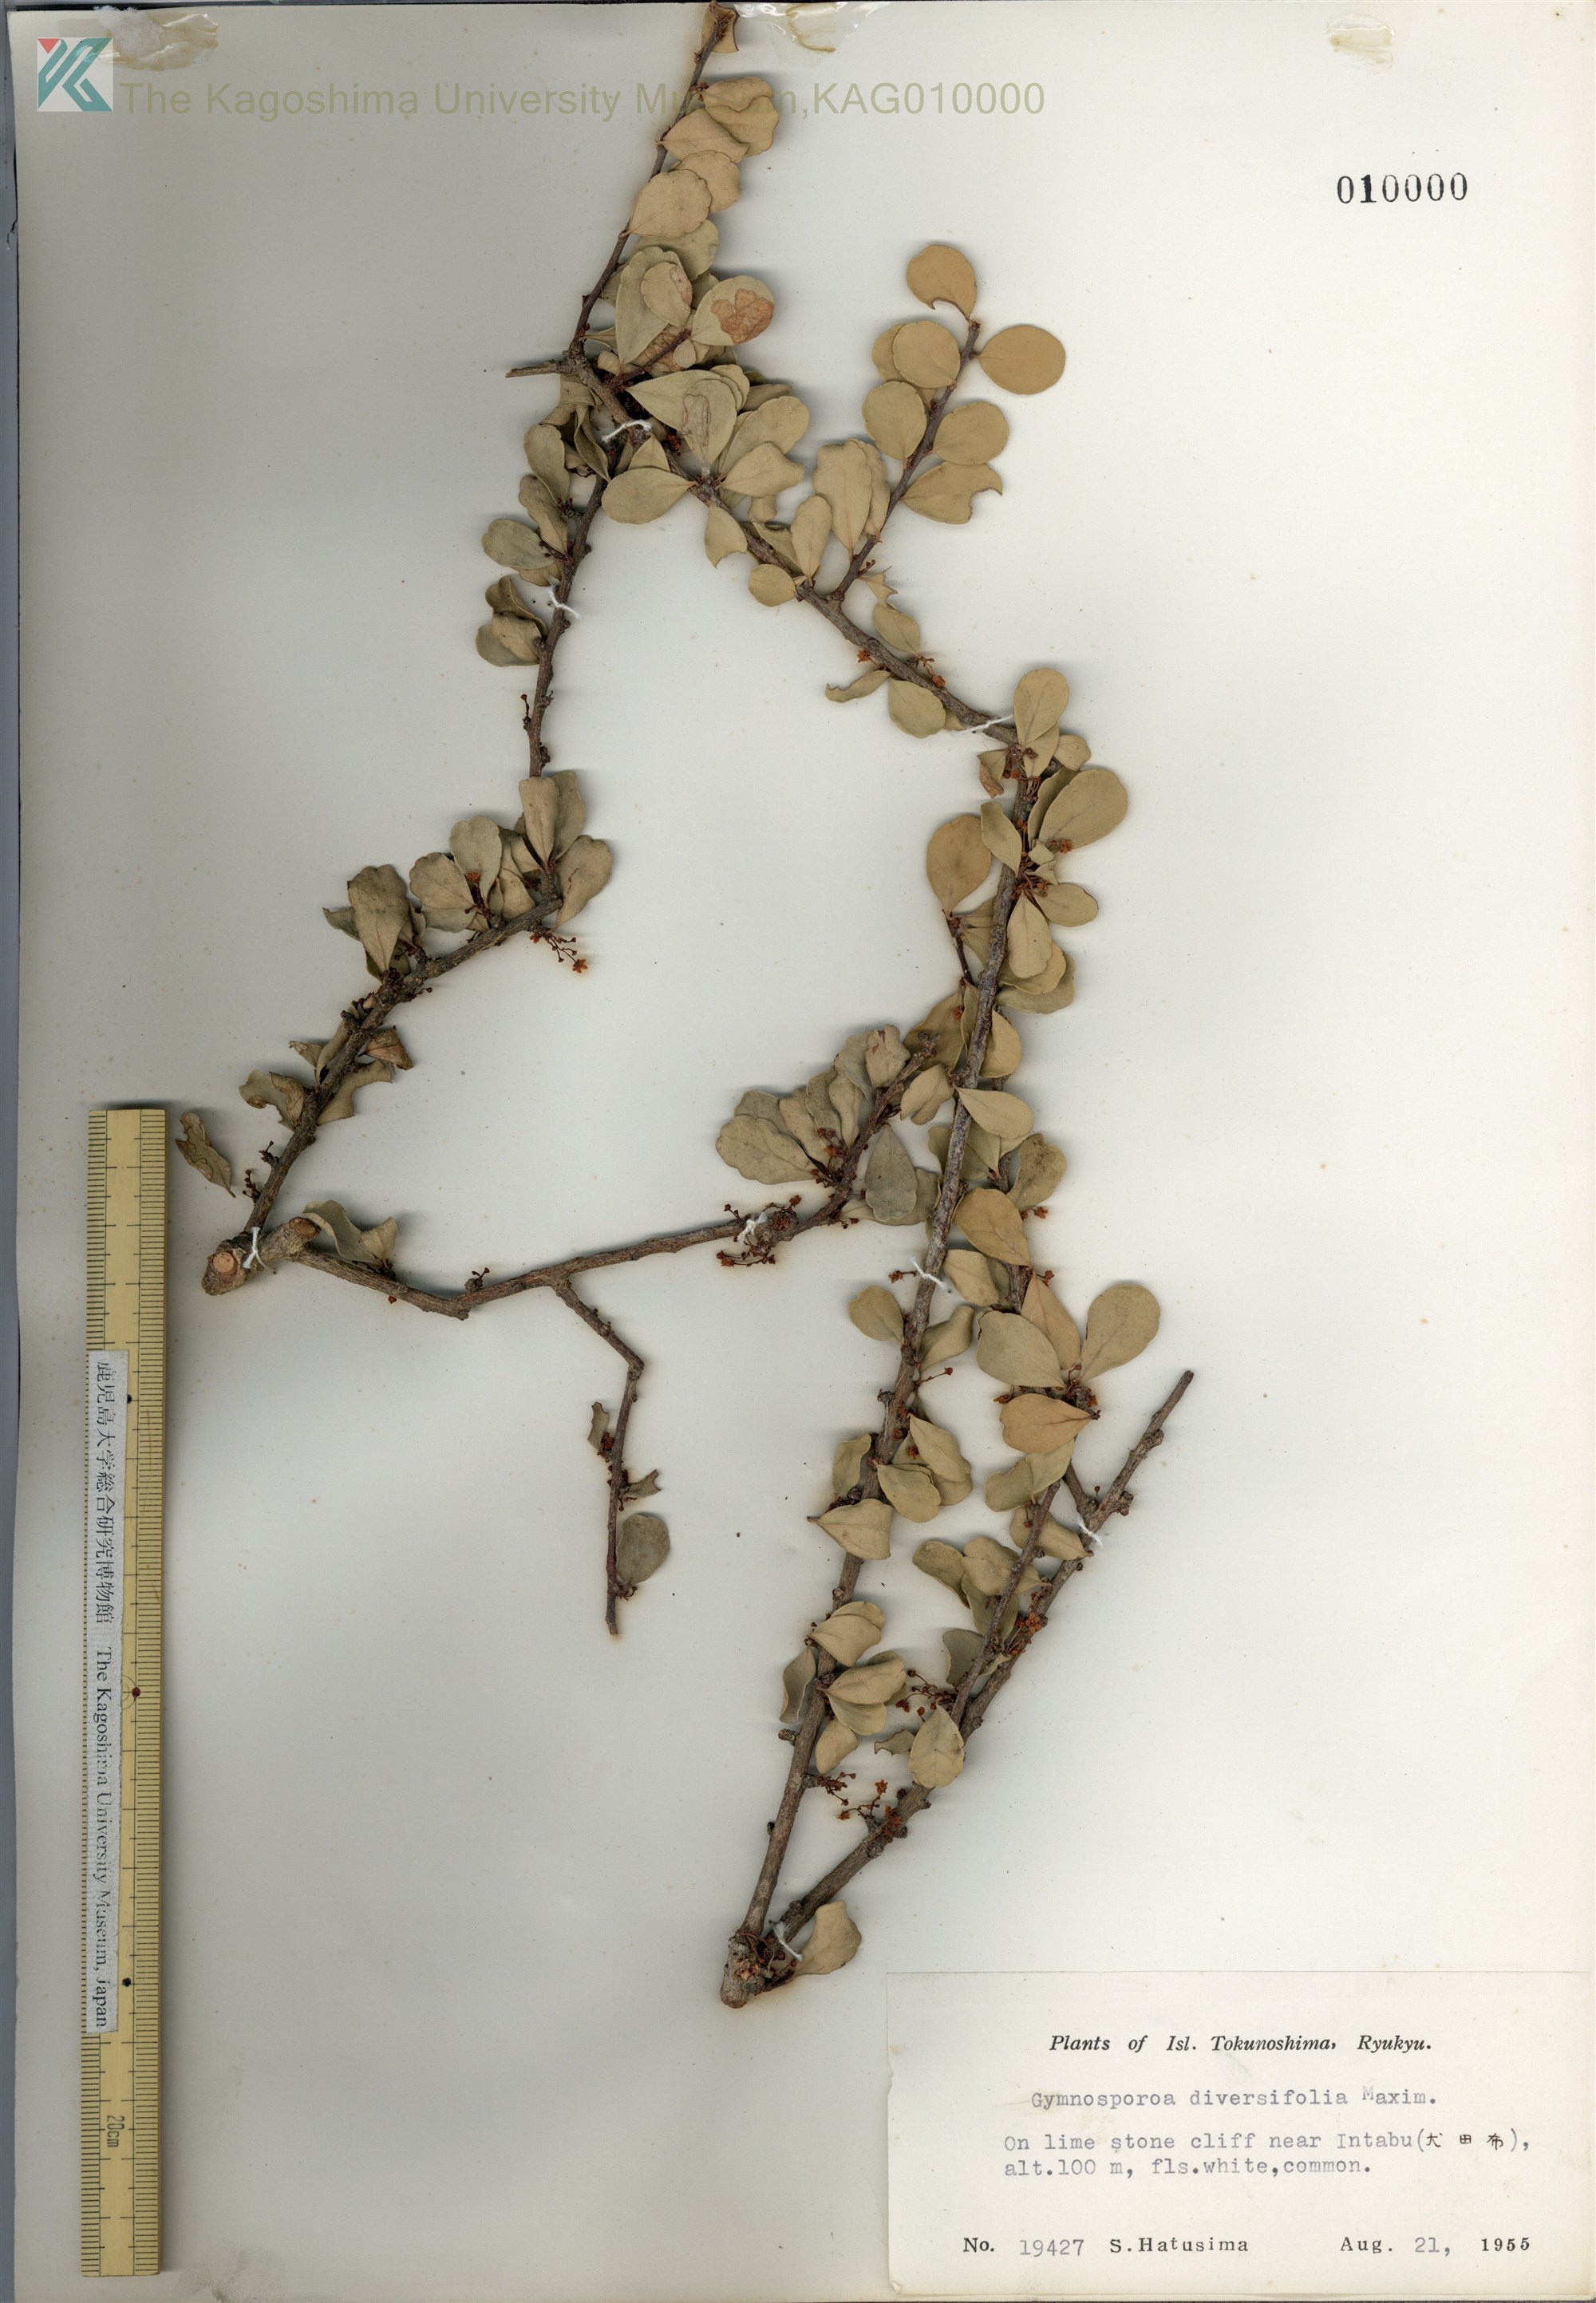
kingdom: Plantae
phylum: Tracheophyta
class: Magnoliopsida
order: Celastrales
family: Celastraceae
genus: Gymnosporia
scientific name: Gymnosporia diversifolia
